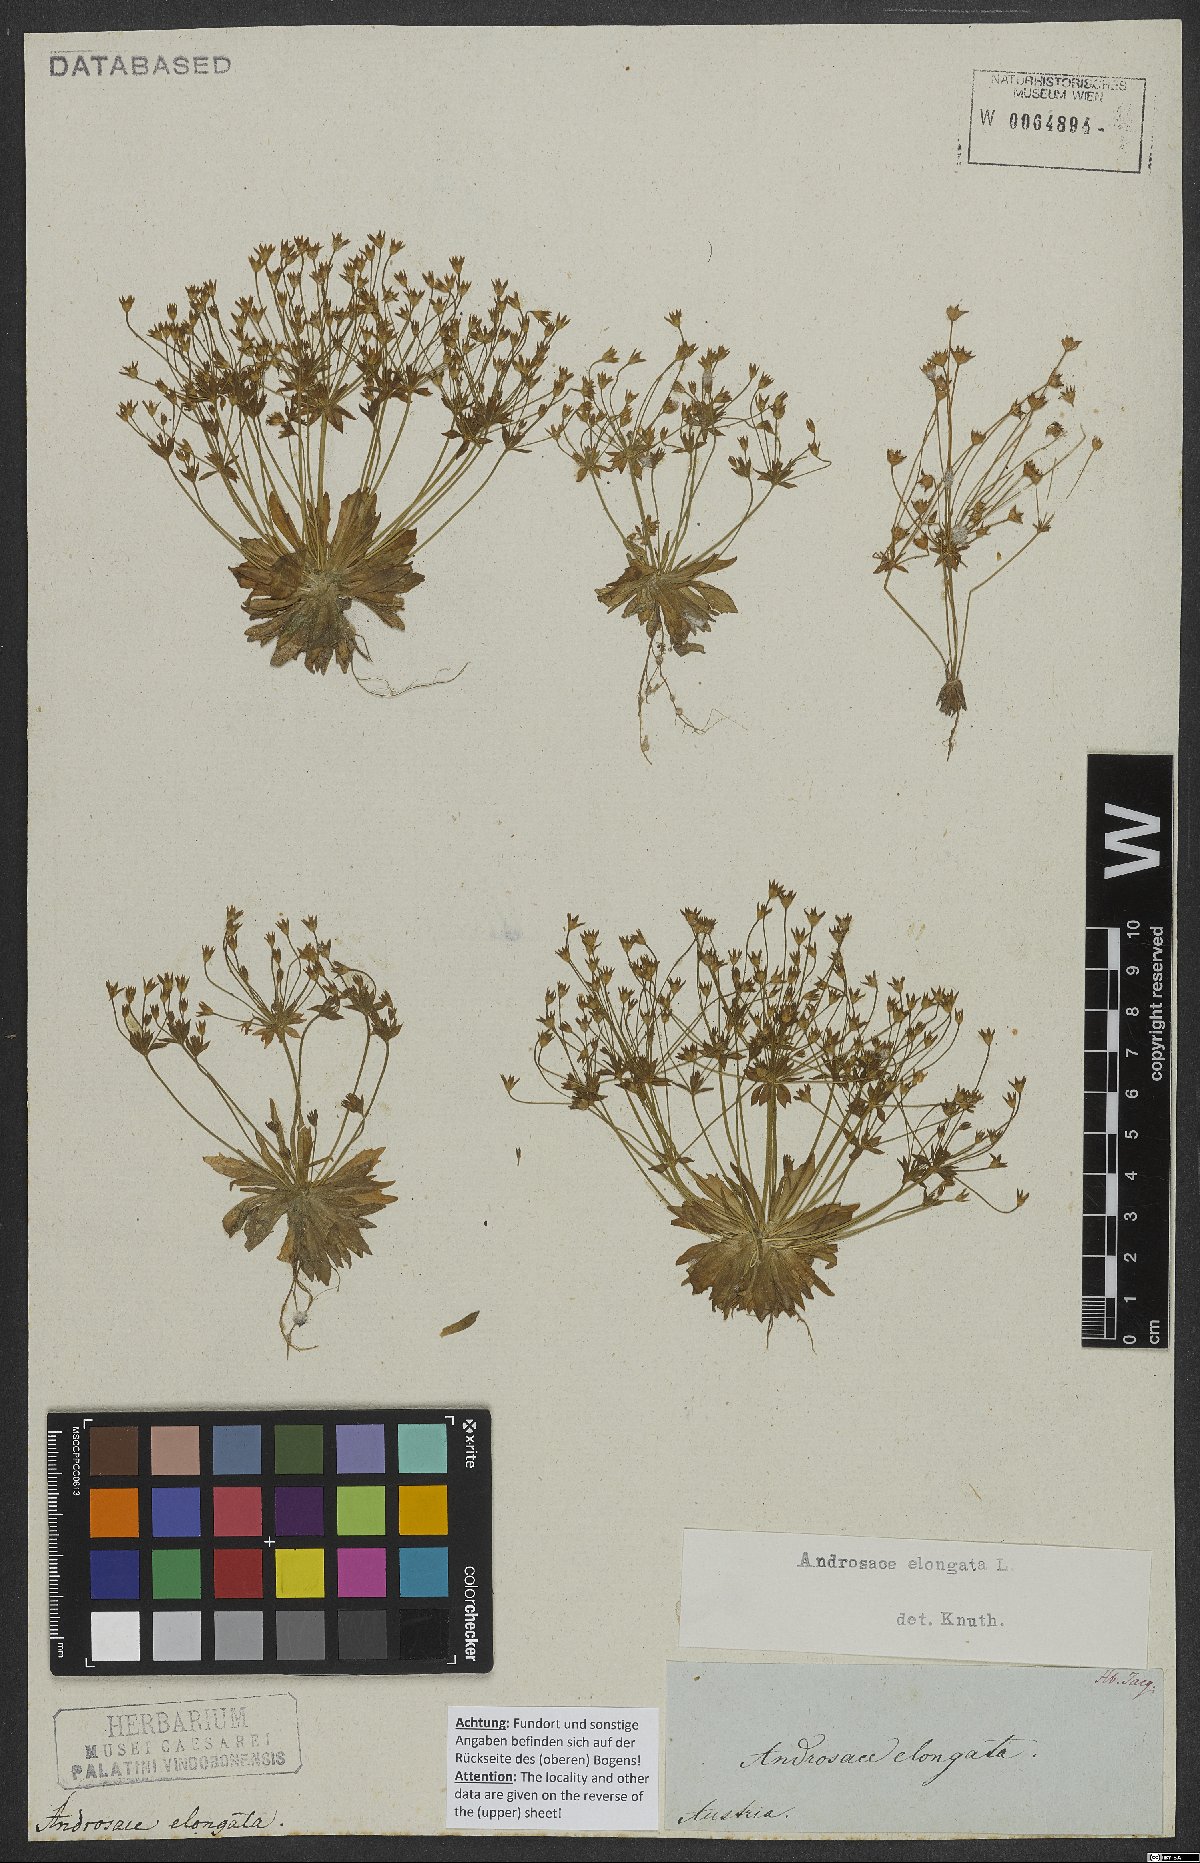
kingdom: Plantae
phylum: Tracheophyta
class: Magnoliopsida
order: Ericales
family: Primulaceae
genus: Androsace
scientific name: Androsace elongata
